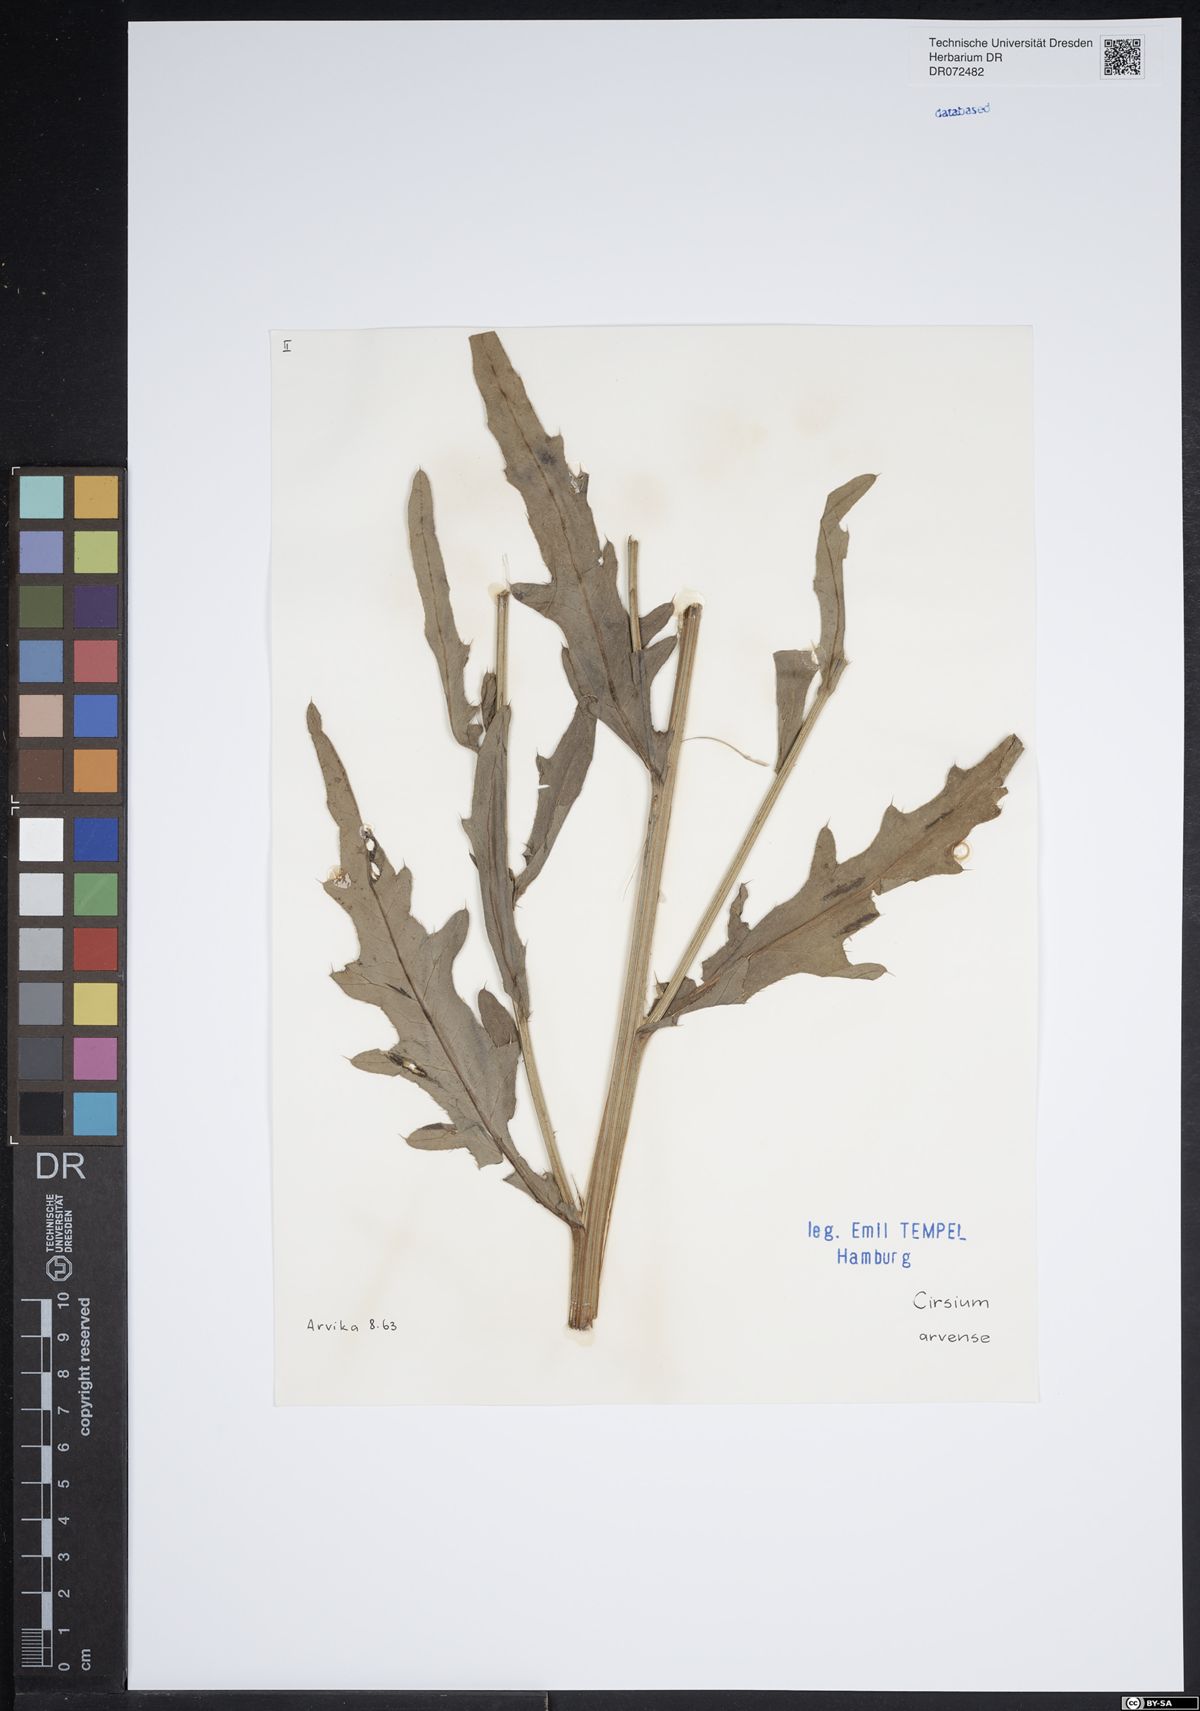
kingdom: Plantae
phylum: Tracheophyta
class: Magnoliopsida
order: Asterales
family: Asteraceae
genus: Cirsium
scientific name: Cirsium arvense
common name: Creeping thistle
